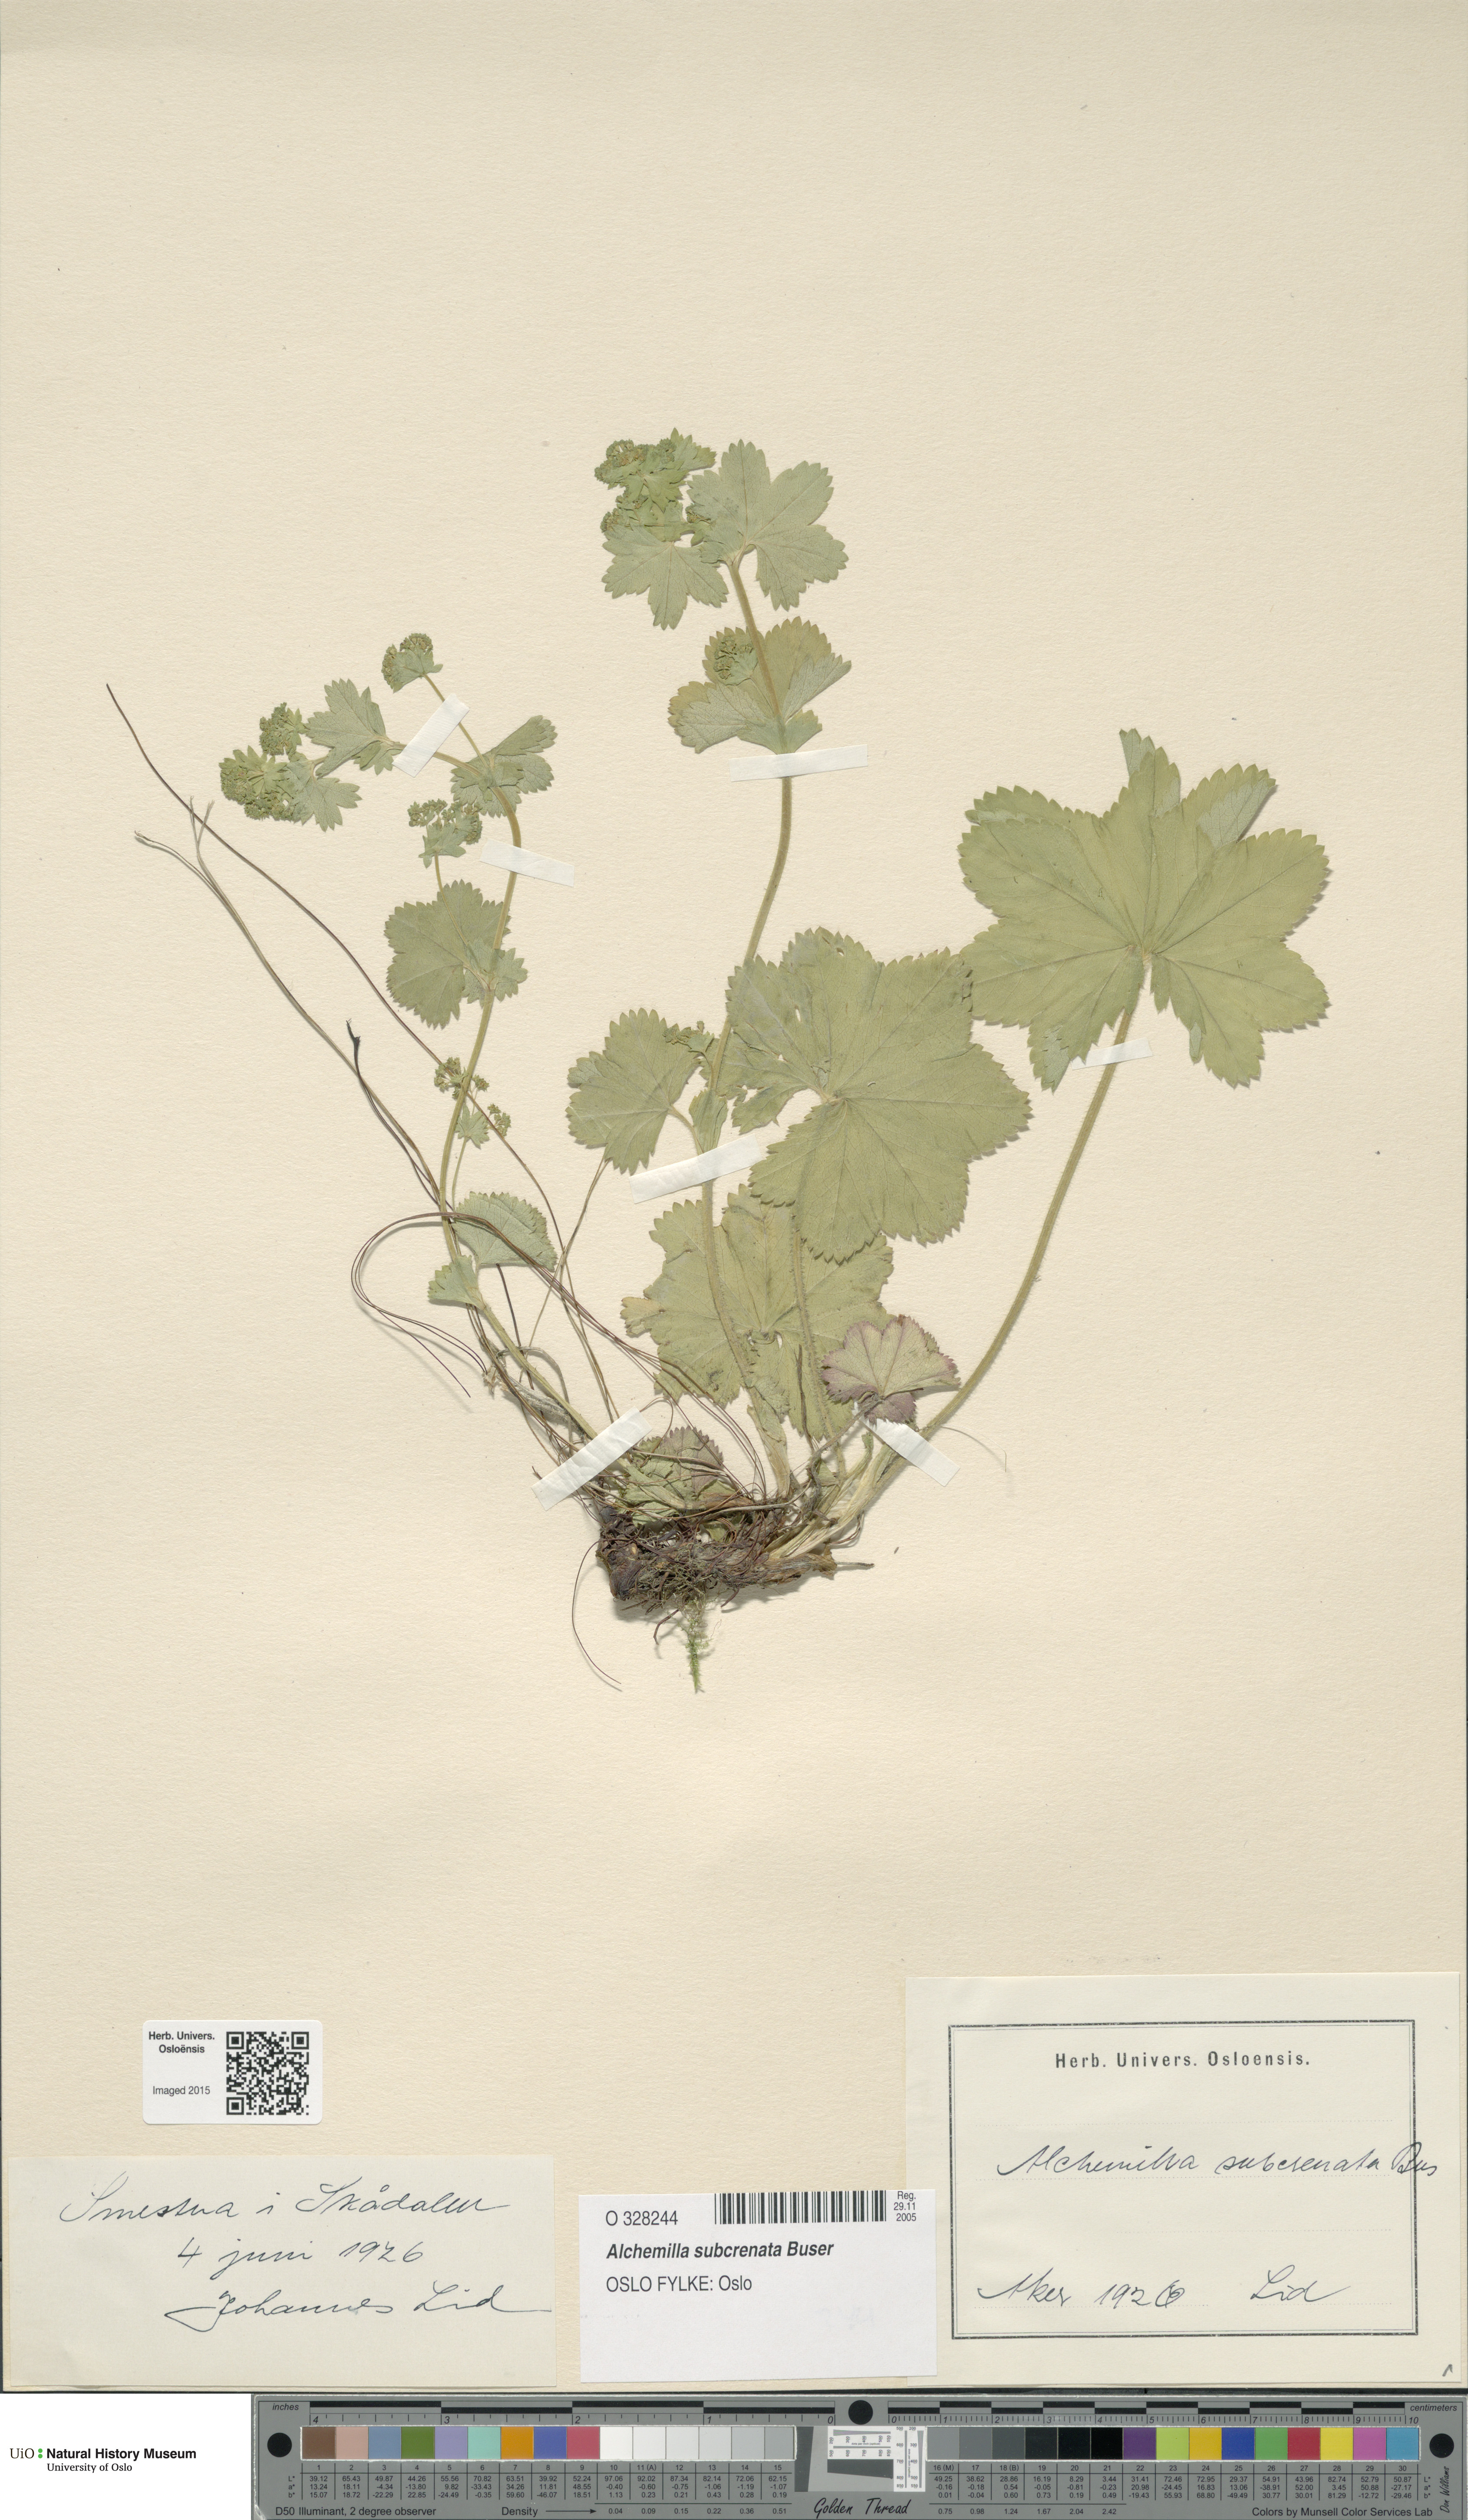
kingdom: Plantae
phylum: Tracheophyta
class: Magnoliopsida
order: Rosales
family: Rosaceae
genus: Alchemilla
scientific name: Alchemilla subcrenata
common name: Broadtooth lady's mantle
